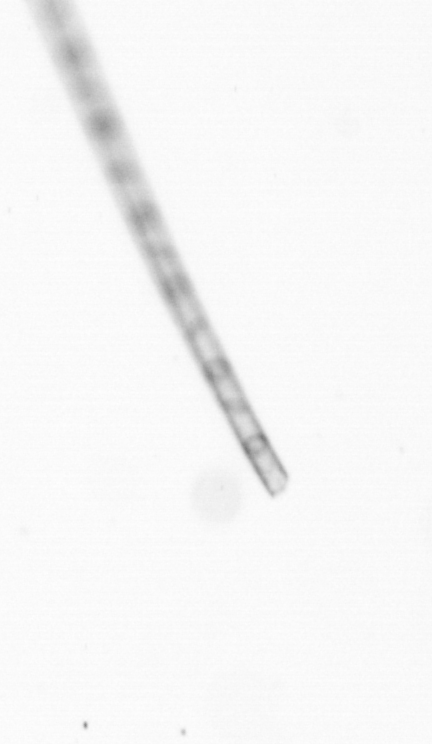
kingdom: Chromista
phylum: Ochrophyta
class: Bacillariophyceae
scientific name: Bacillariophyceae
